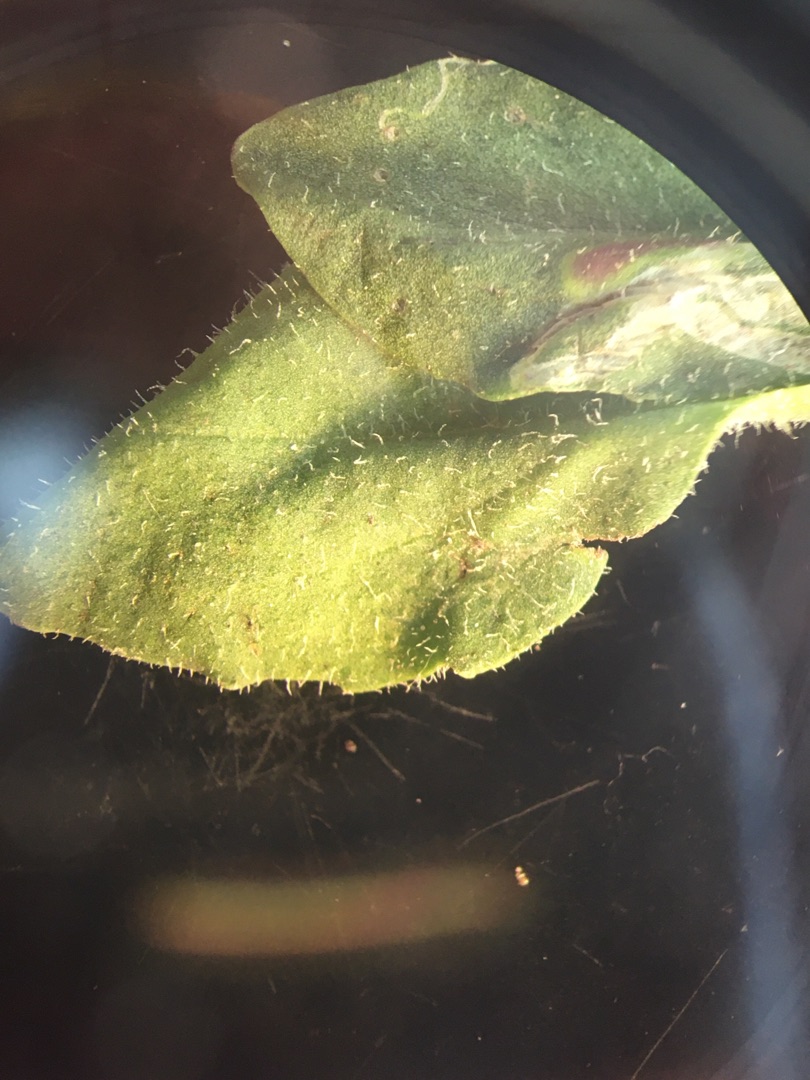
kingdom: Plantae
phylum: Tracheophyta
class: Magnoliopsida
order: Lamiales
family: Plantaginaceae
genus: Plantago
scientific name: Plantago major
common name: Glat vejbred
